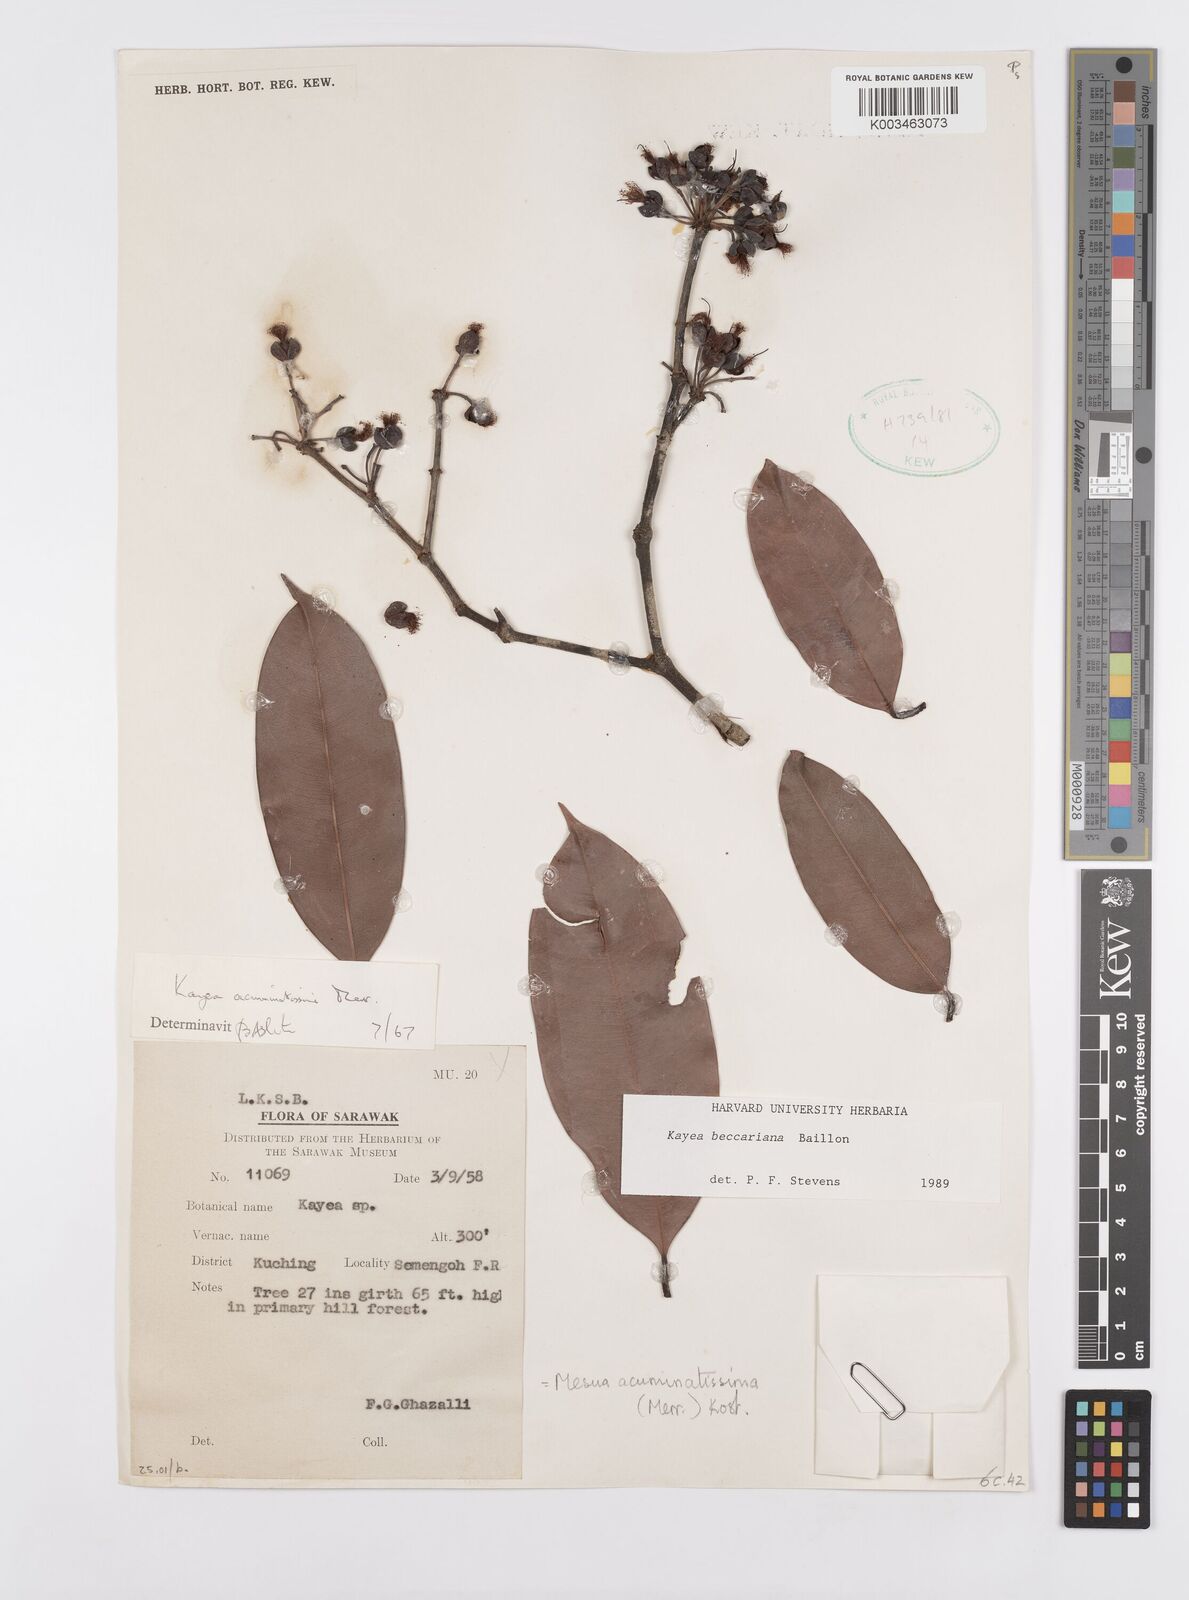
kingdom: Plantae
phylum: Tracheophyta
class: Magnoliopsida
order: Malpighiales
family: Calophyllaceae
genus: Kayea
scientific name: Kayea beccariana
